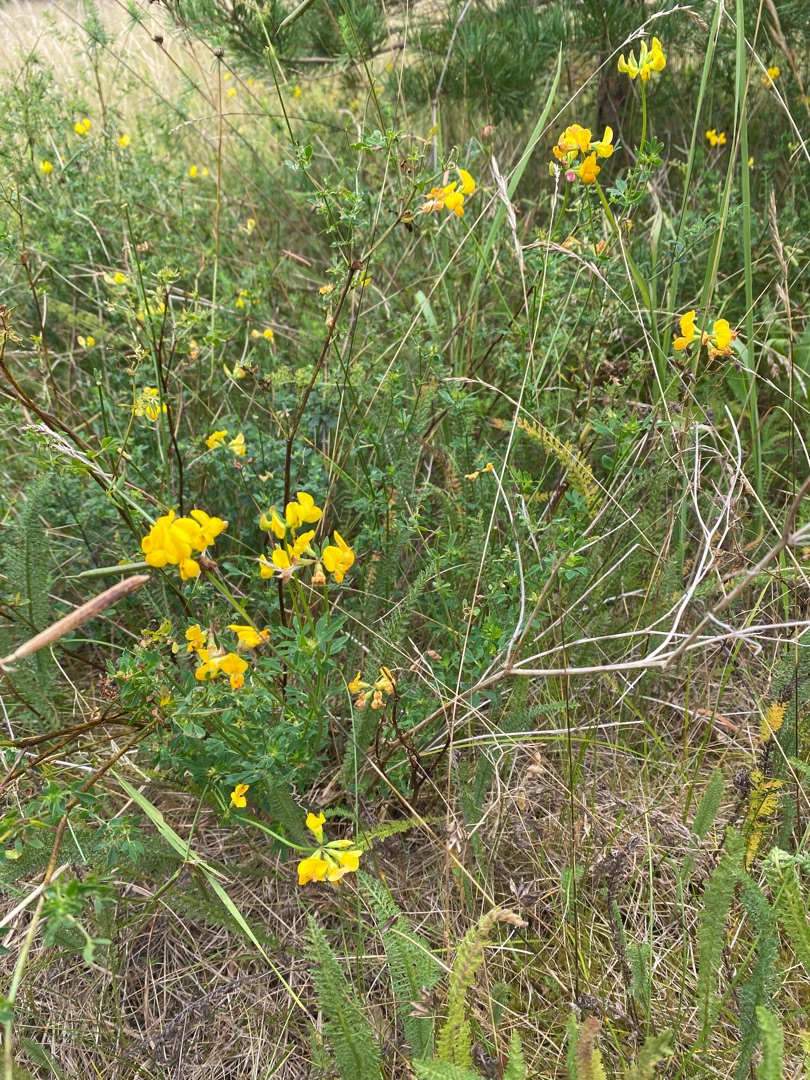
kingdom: Plantae
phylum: Tracheophyta
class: Magnoliopsida
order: Fabales
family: Fabaceae
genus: Lotus
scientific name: Lotus corniculatus
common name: Almindelig kællingetand
